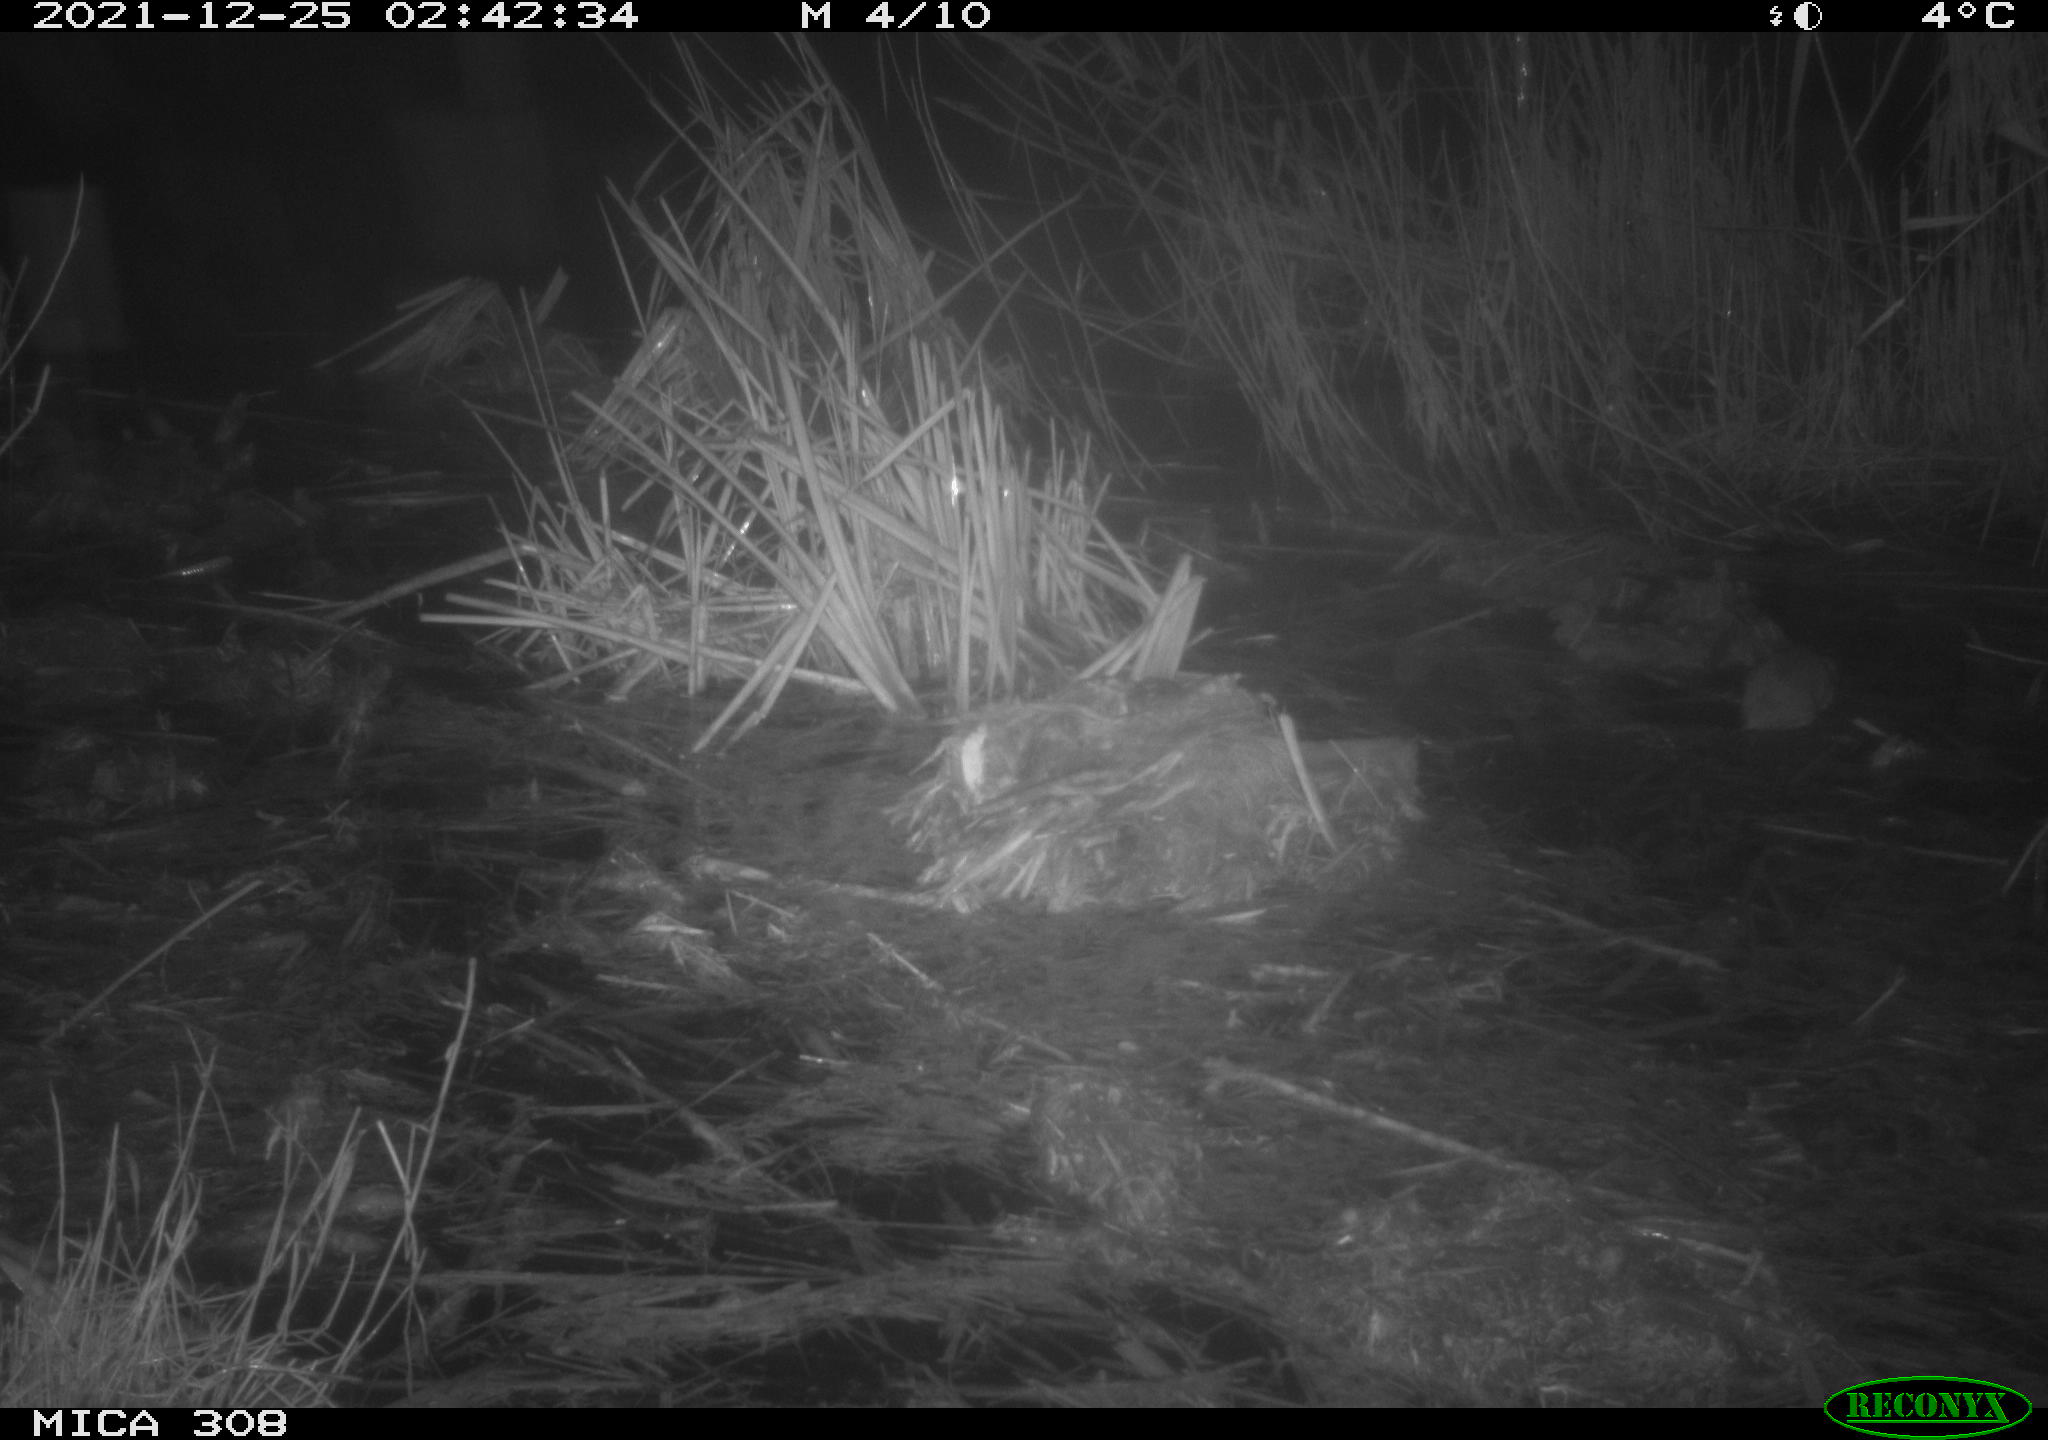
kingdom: Animalia
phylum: Chordata
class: Mammalia
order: Rodentia
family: Muridae
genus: Rattus
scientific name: Rattus norvegicus
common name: Brown rat
